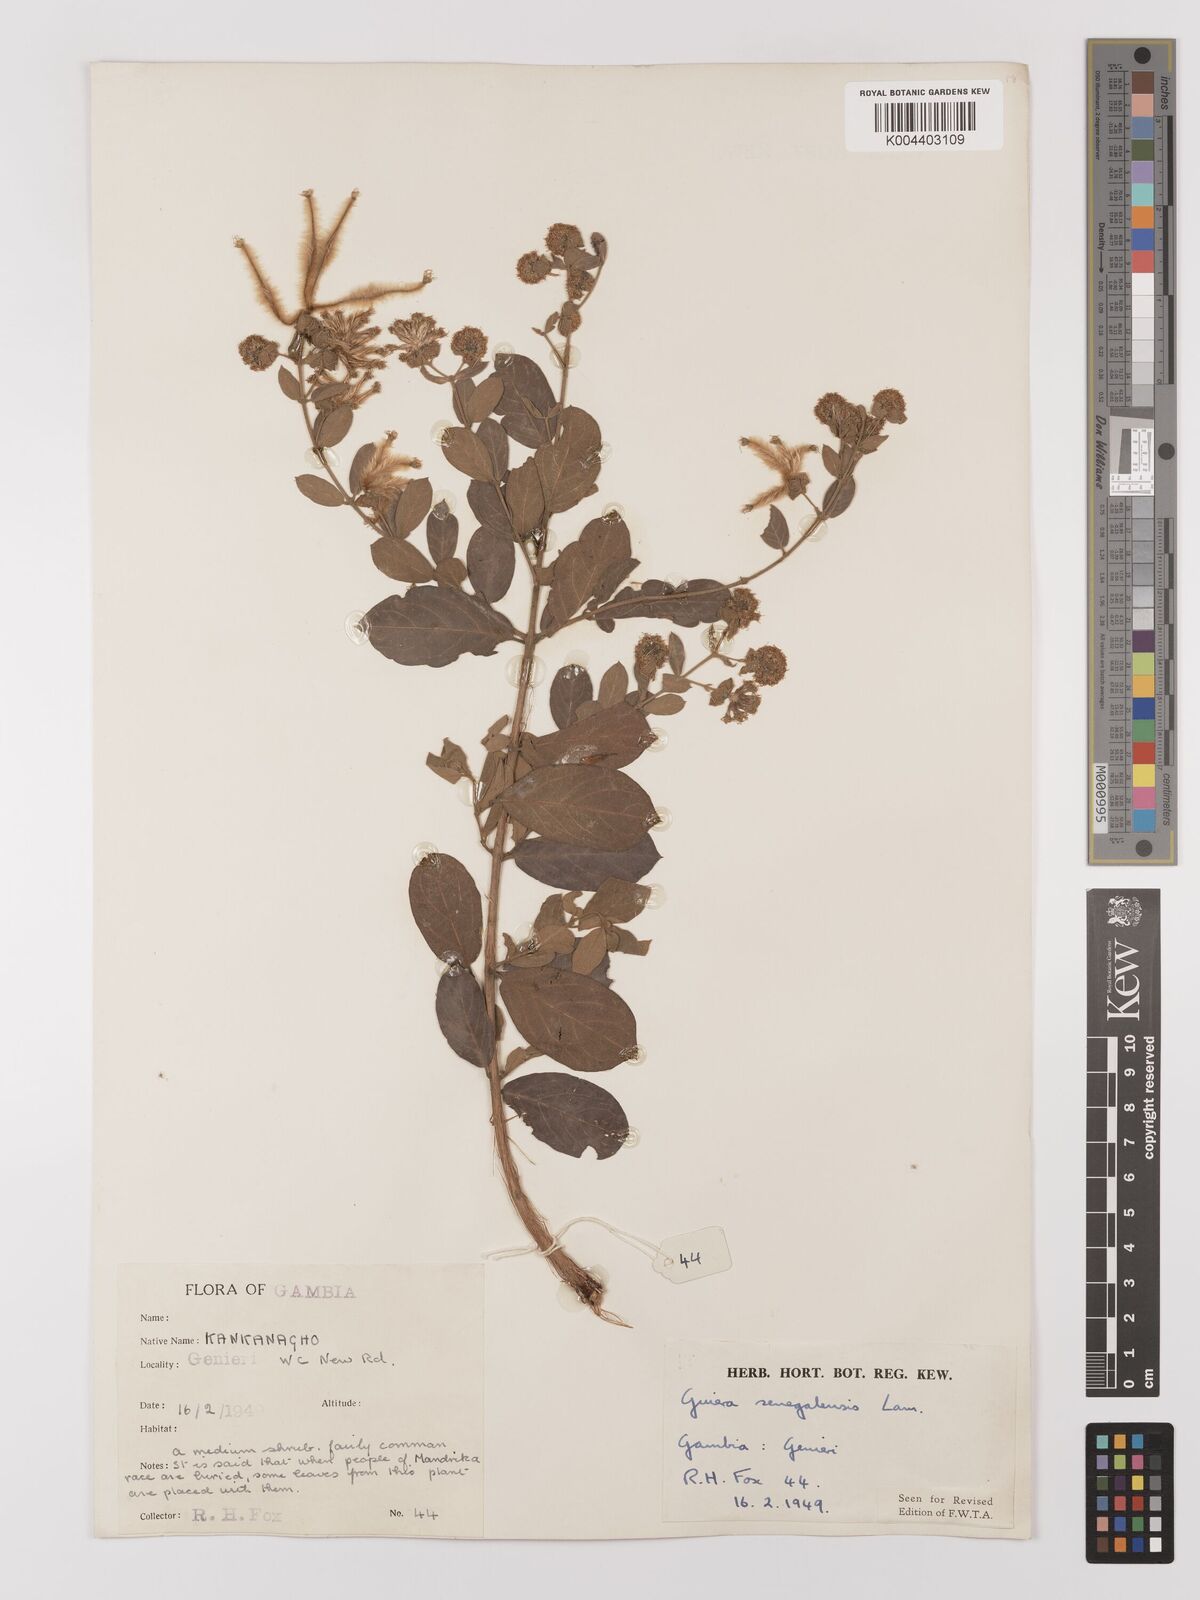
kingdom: Plantae
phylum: Tracheophyta
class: Magnoliopsida
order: Myrtales
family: Combretaceae
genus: Guiera
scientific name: Guiera senegalensis
